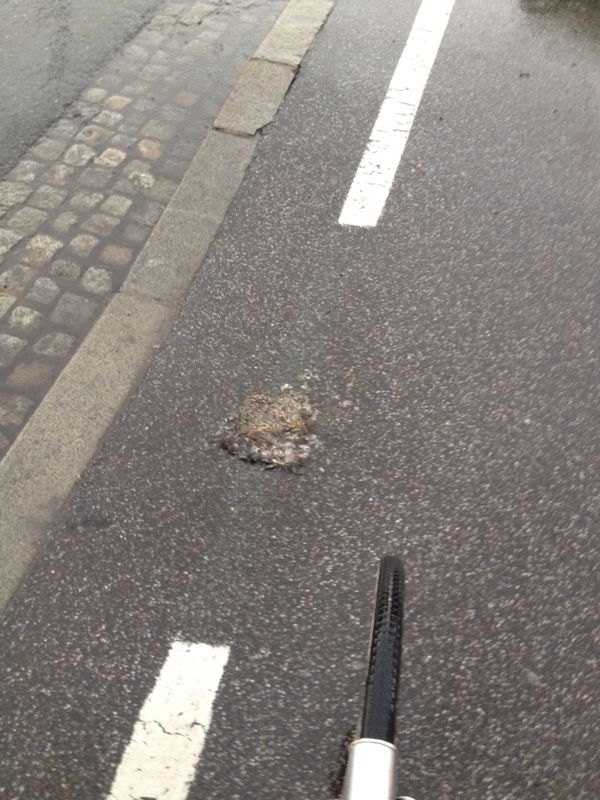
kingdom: Animalia
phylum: Chordata
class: Mammalia
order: Erinaceomorpha
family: Erinaceidae
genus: Erinaceus
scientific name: Erinaceus
